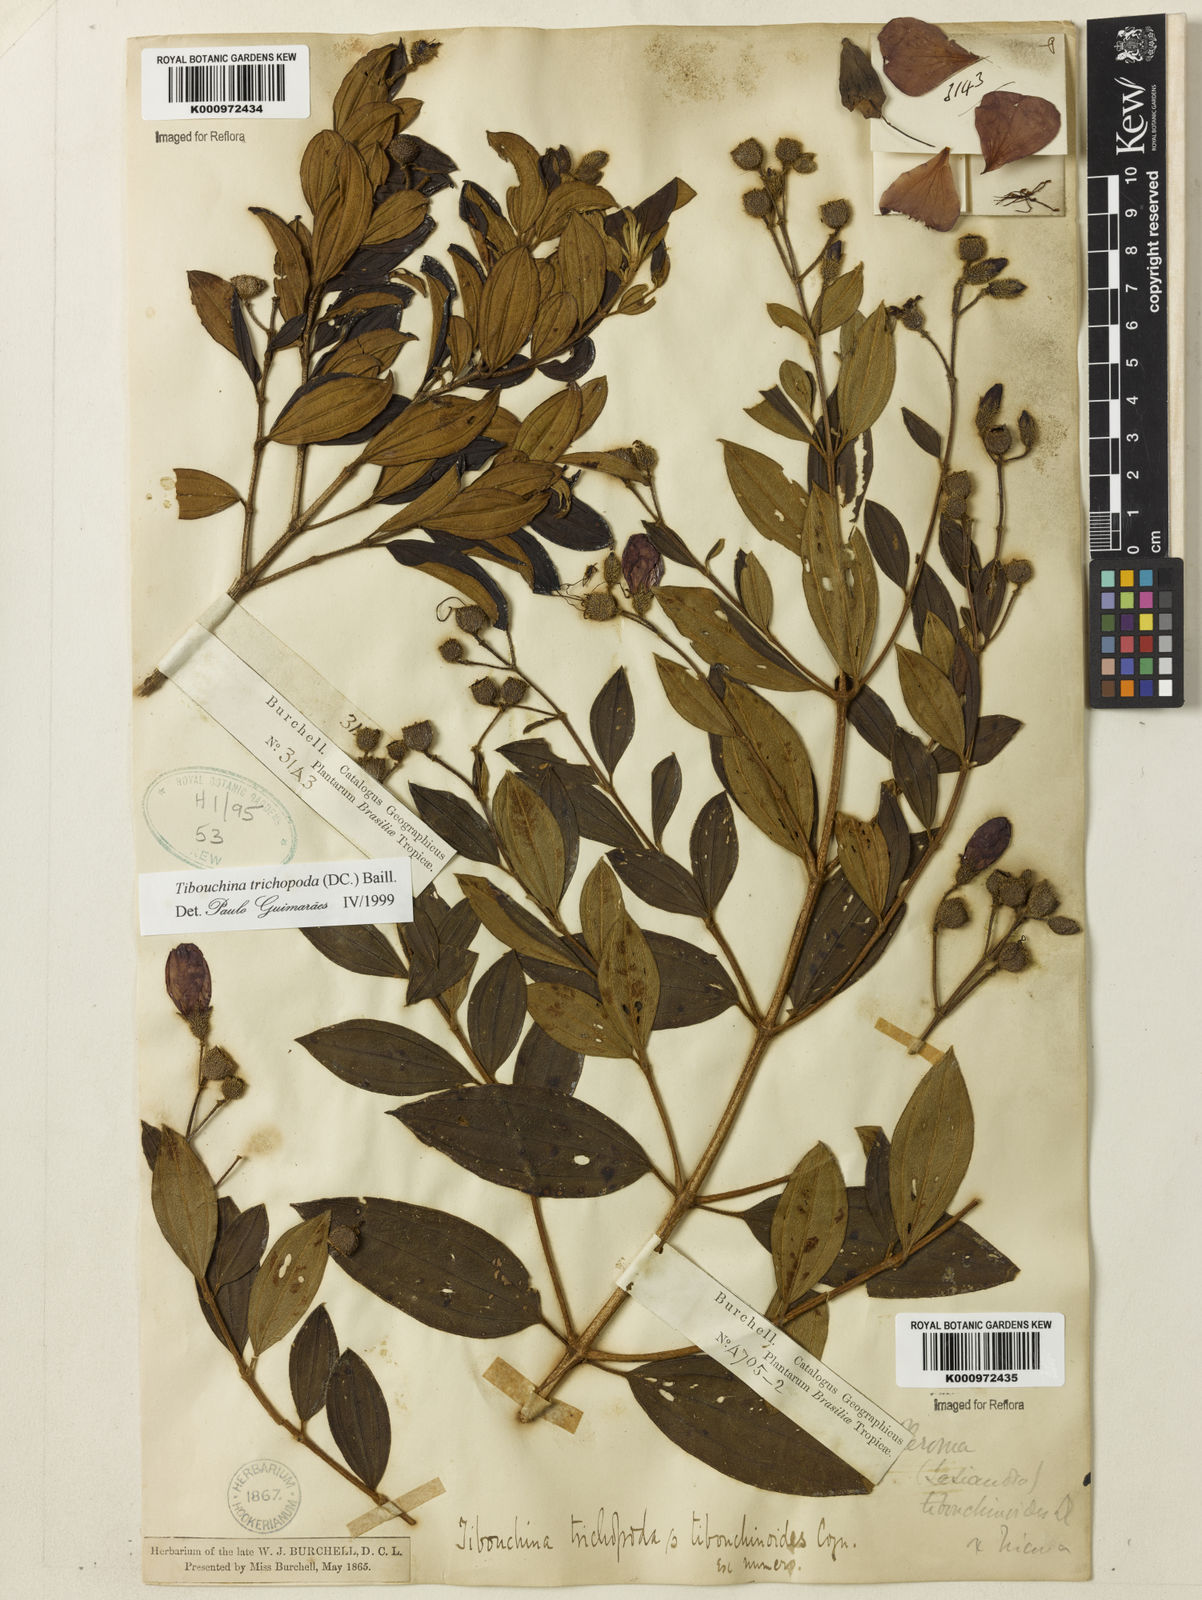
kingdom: Plantae
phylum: Tracheophyta
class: Magnoliopsida
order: Myrtales
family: Melastomataceae
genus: Pleroma
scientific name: Pleroma trichopodum
